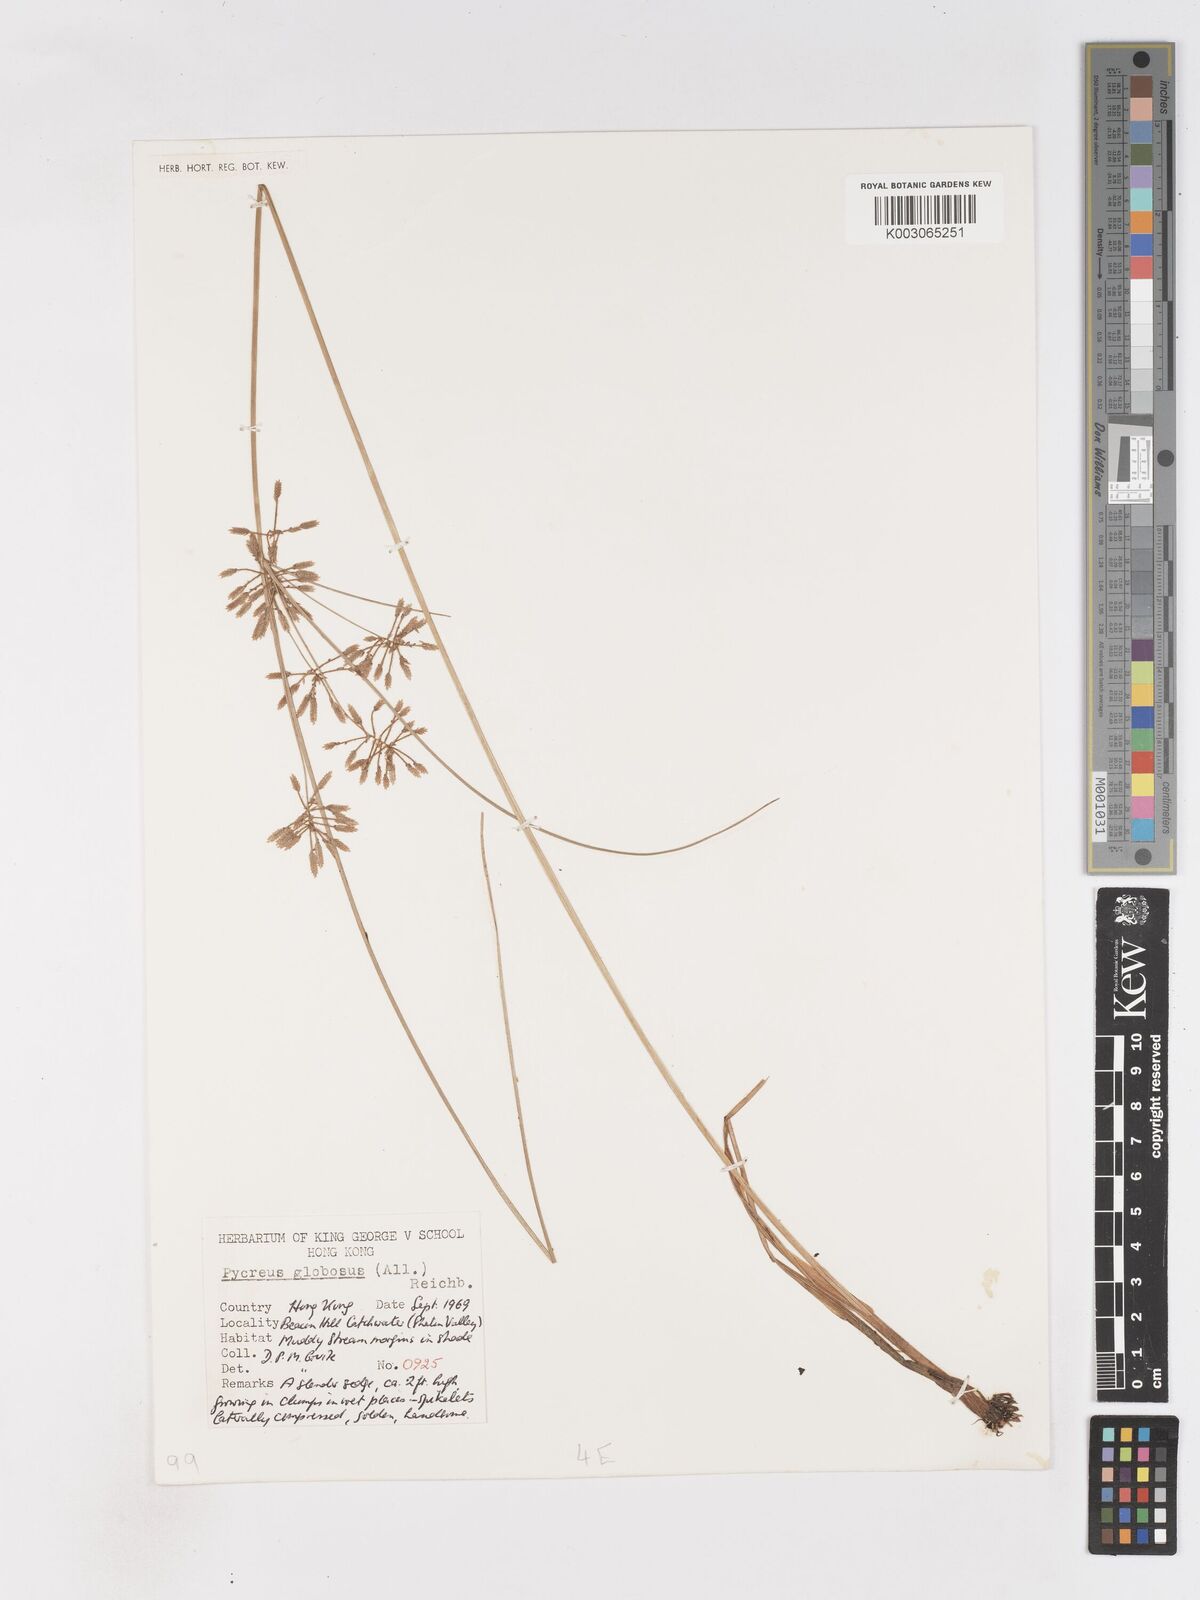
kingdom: Plantae
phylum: Tracheophyta
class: Liliopsida
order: Poales
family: Cyperaceae
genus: Cyperus
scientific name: Cyperus flavidus
